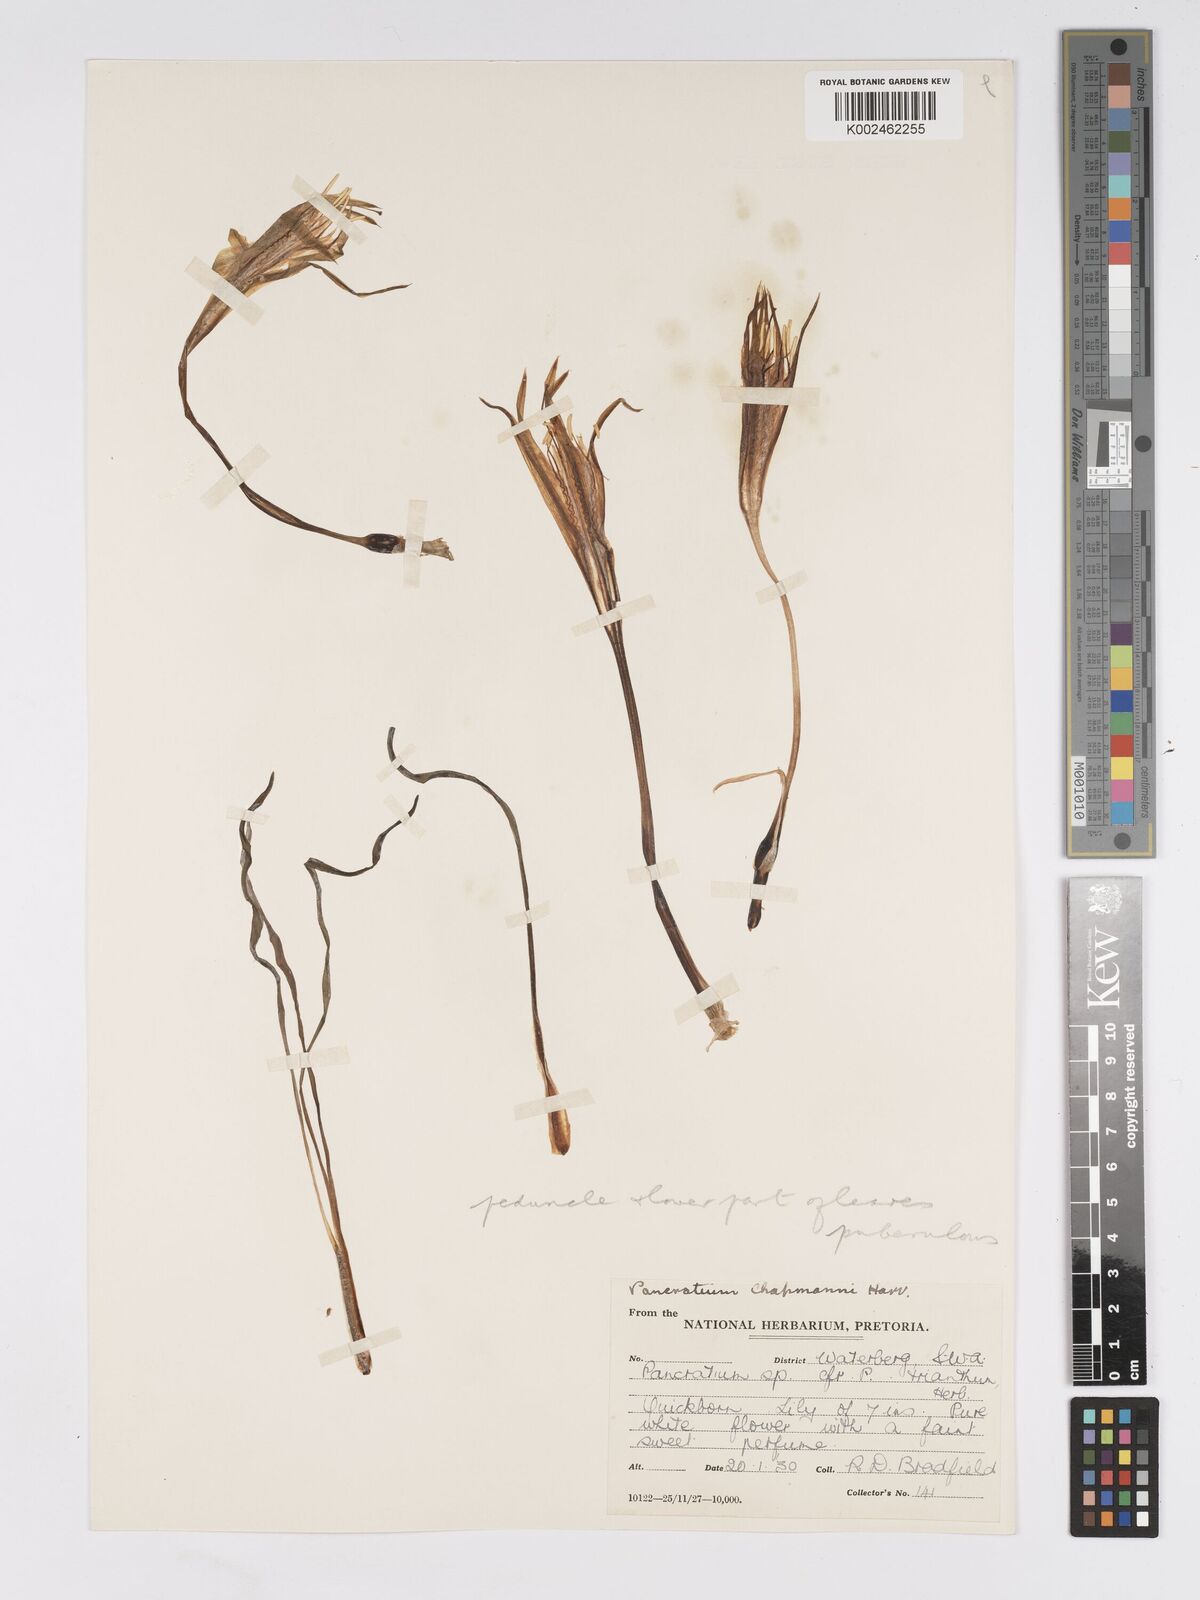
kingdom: Plantae
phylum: Tracheophyta
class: Liliopsida
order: Asparagales
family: Amaryllidaceae
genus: Pancratium
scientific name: Pancratium tenuifolium
